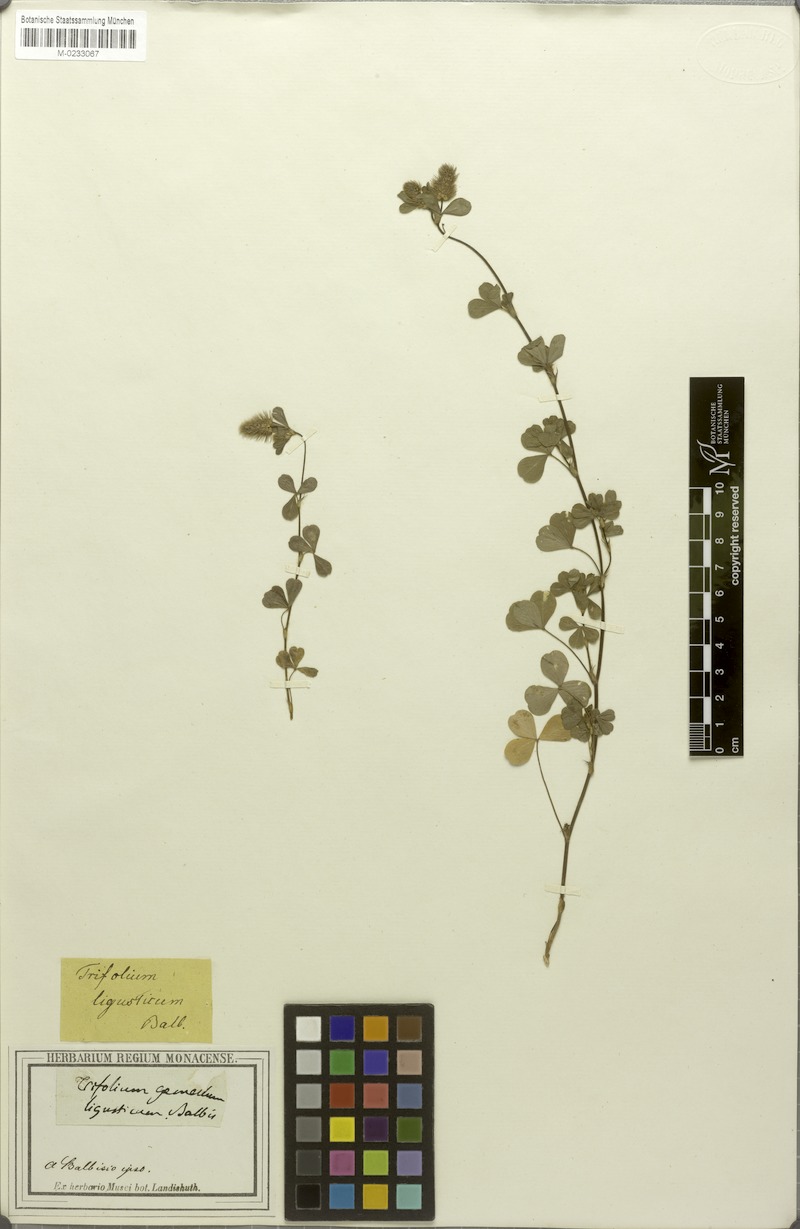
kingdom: Plantae
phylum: Tracheophyta
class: Magnoliopsida
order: Fabales
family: Fabaceae
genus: Trifolium
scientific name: Trifolium ligusticum
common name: Ligurian clover
